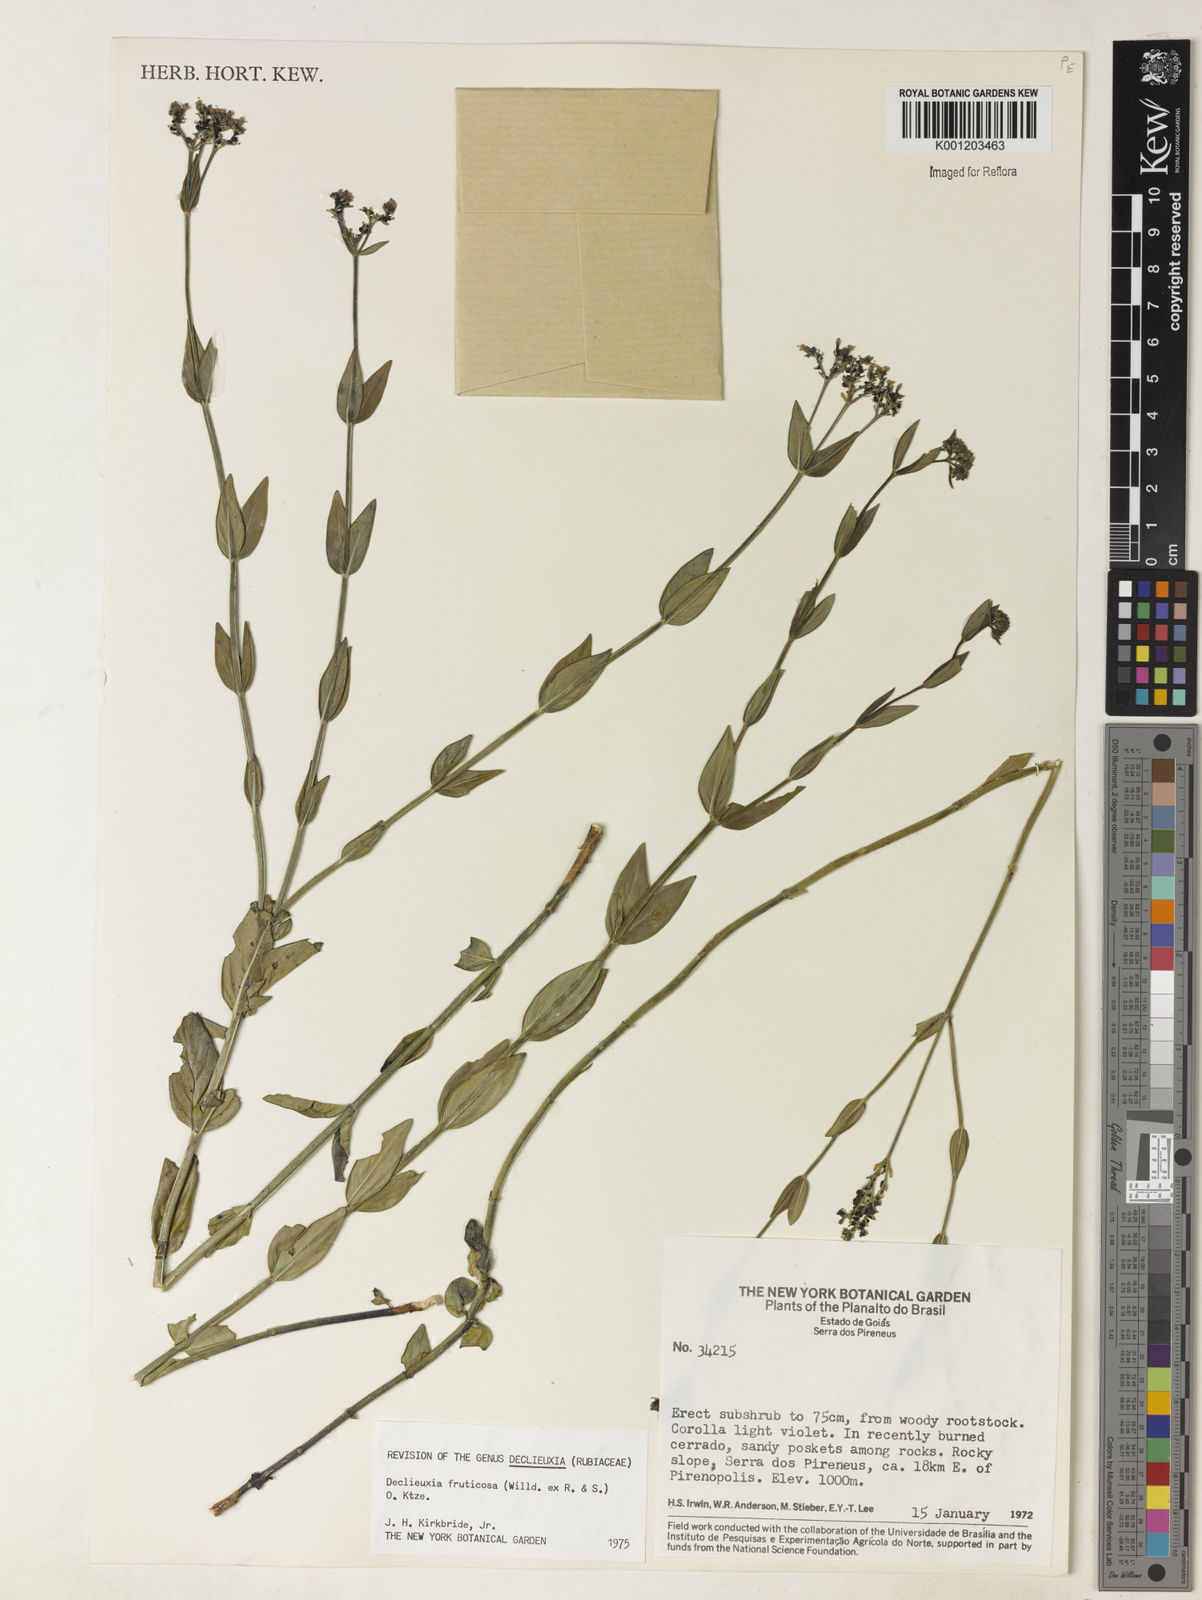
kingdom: Plantae
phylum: Tracheophyta
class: Magnoliopsida
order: Gentianales
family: Rubiaceae
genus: Declieuxia
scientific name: Declieuxia fruticosa
